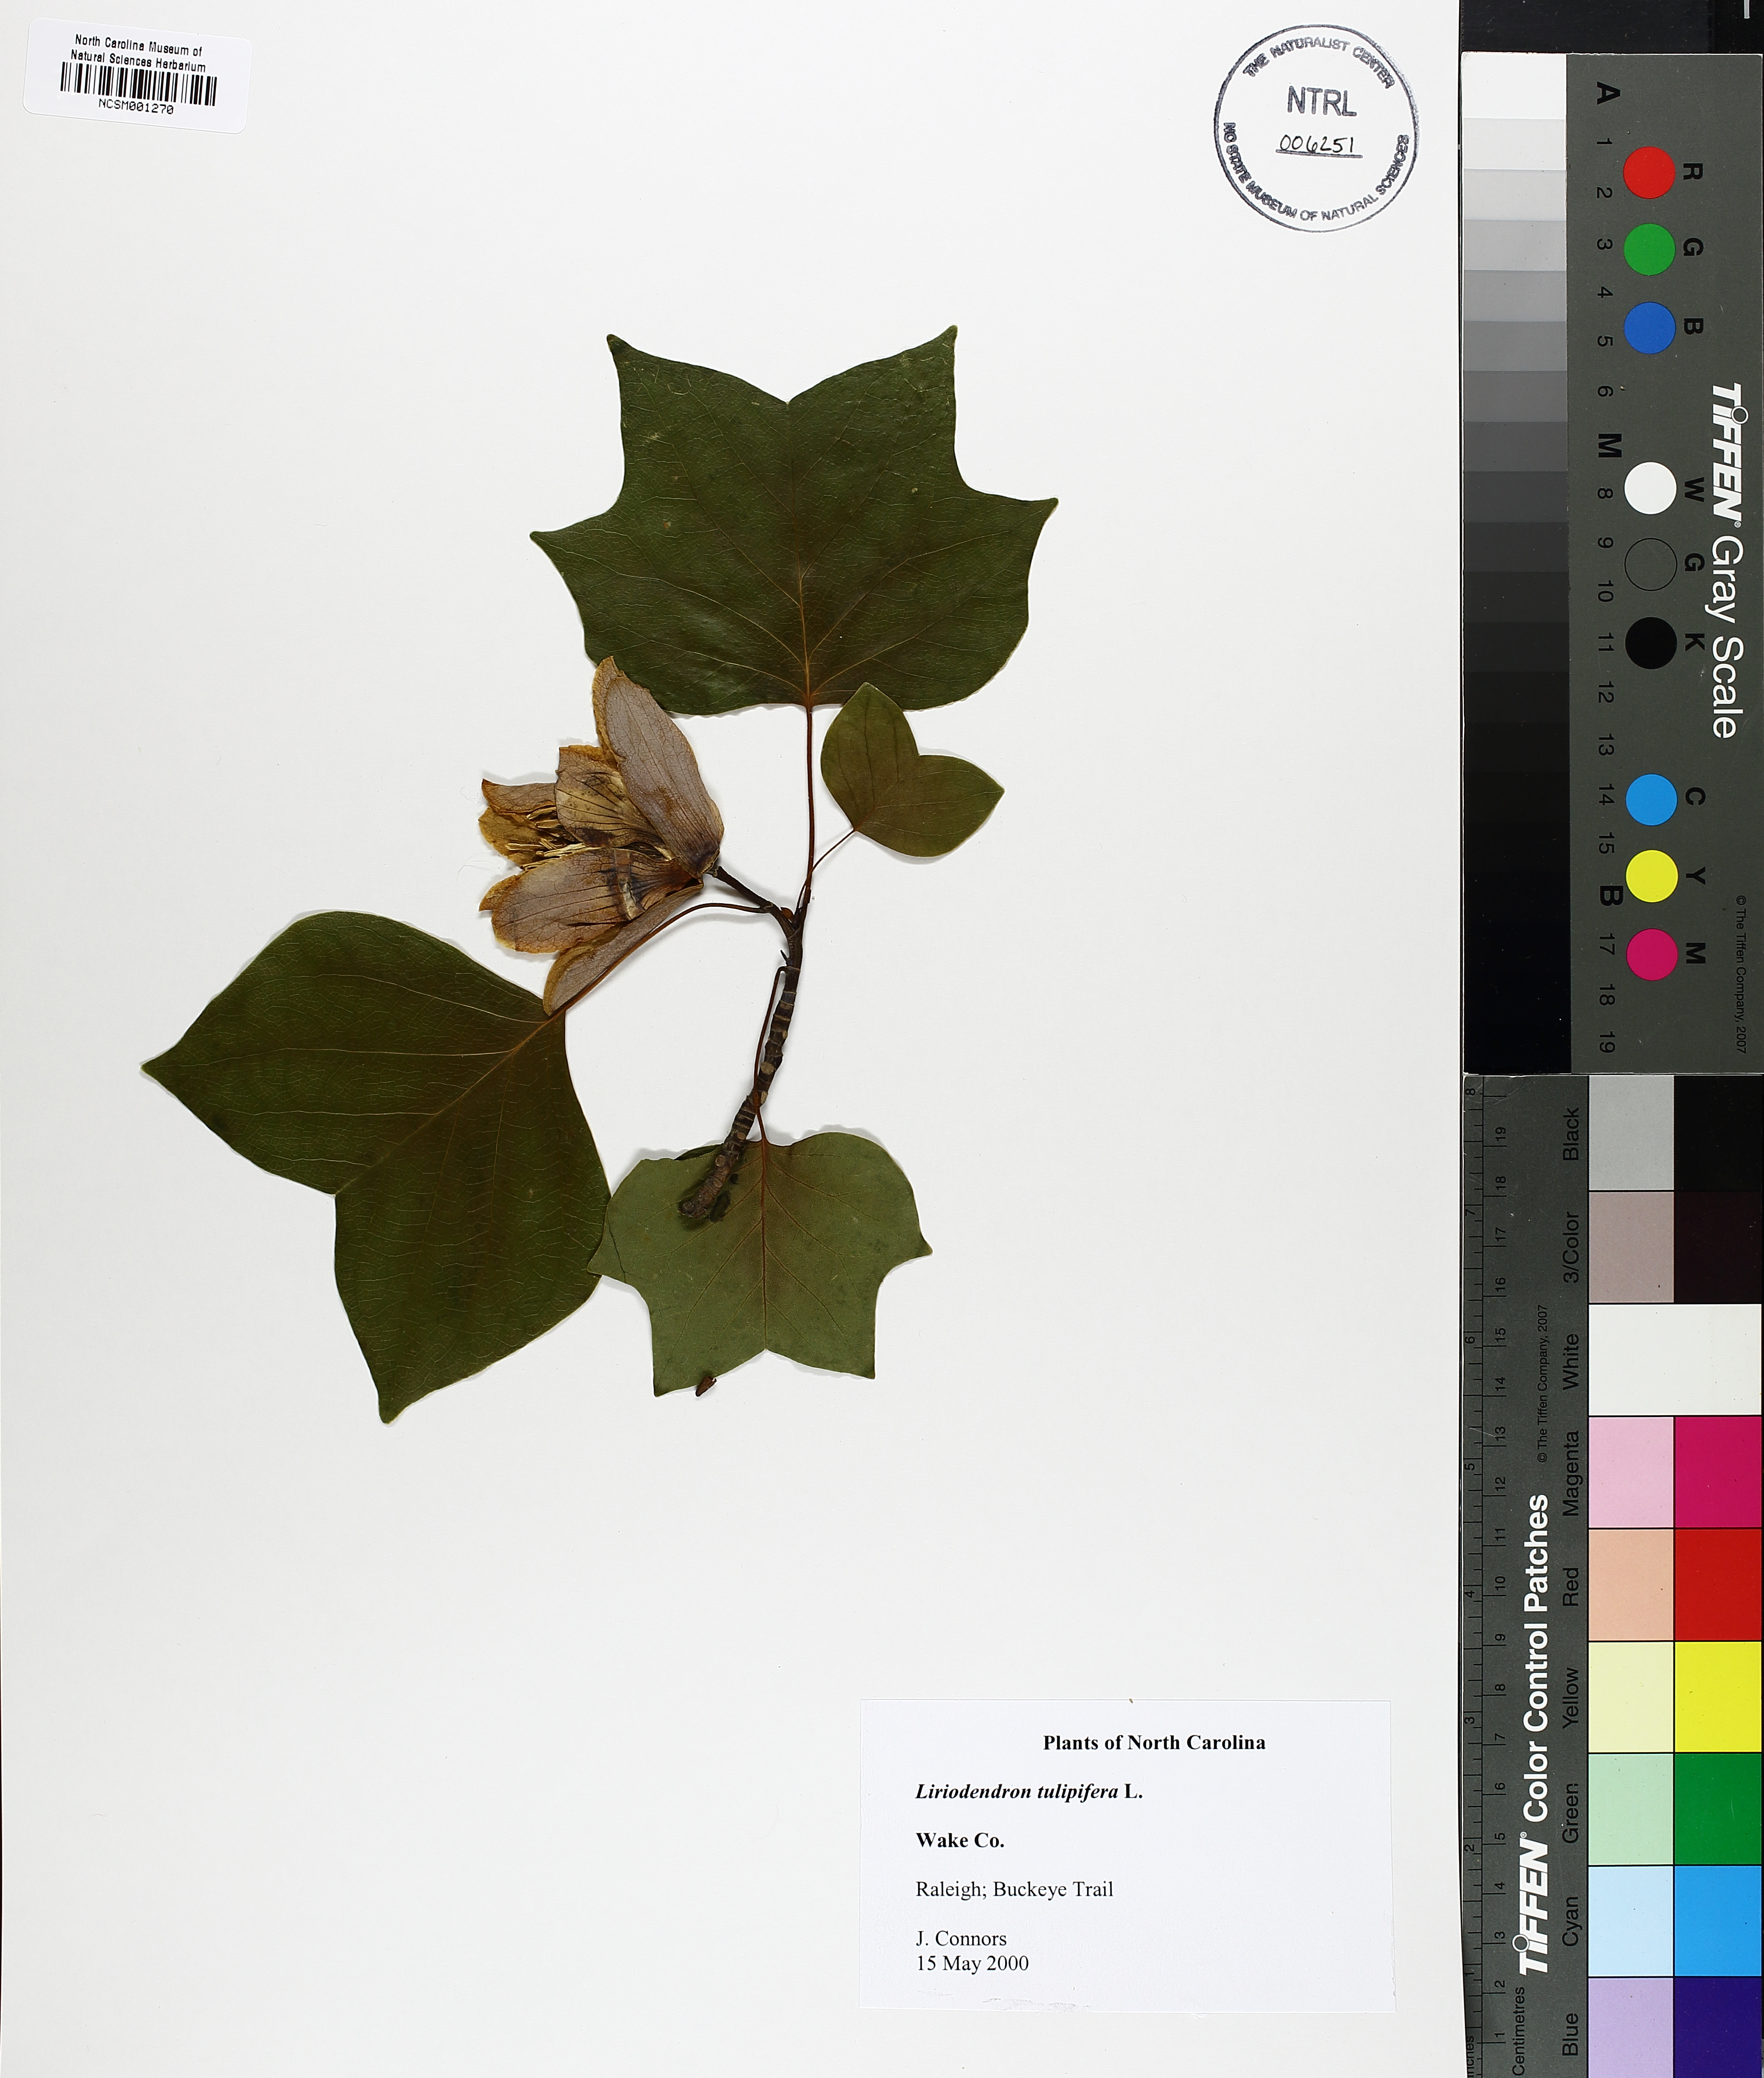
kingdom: Plantae
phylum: Tracheophyta
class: Magnoliopsida
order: Magnoliales
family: Magnoliaceae
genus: Liriodendron
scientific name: Liriodendron tulipifera
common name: Tulip tree
